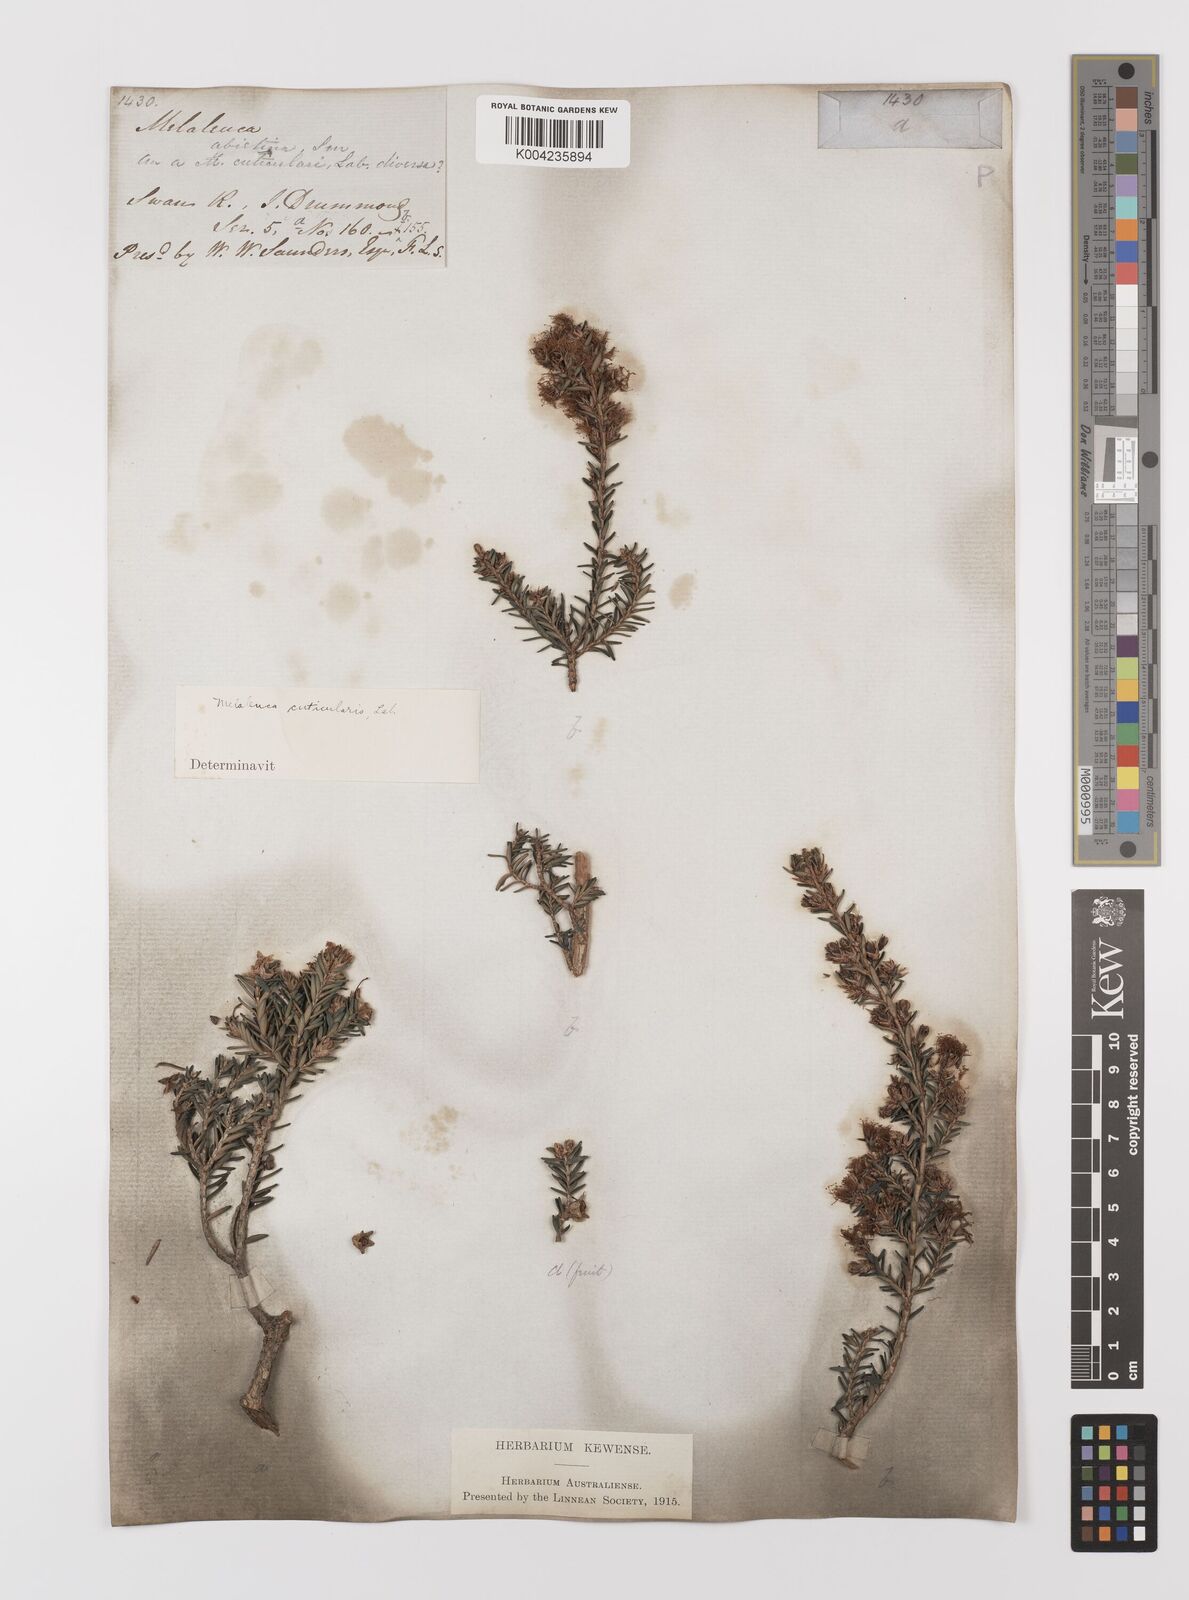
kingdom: Plantae
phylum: Tracheophyta
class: Magnoliopsida
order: Myrtales
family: Myrtaceae
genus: Melaleuca
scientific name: Melaleuca cuticularis
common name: Saltwater paperbark
